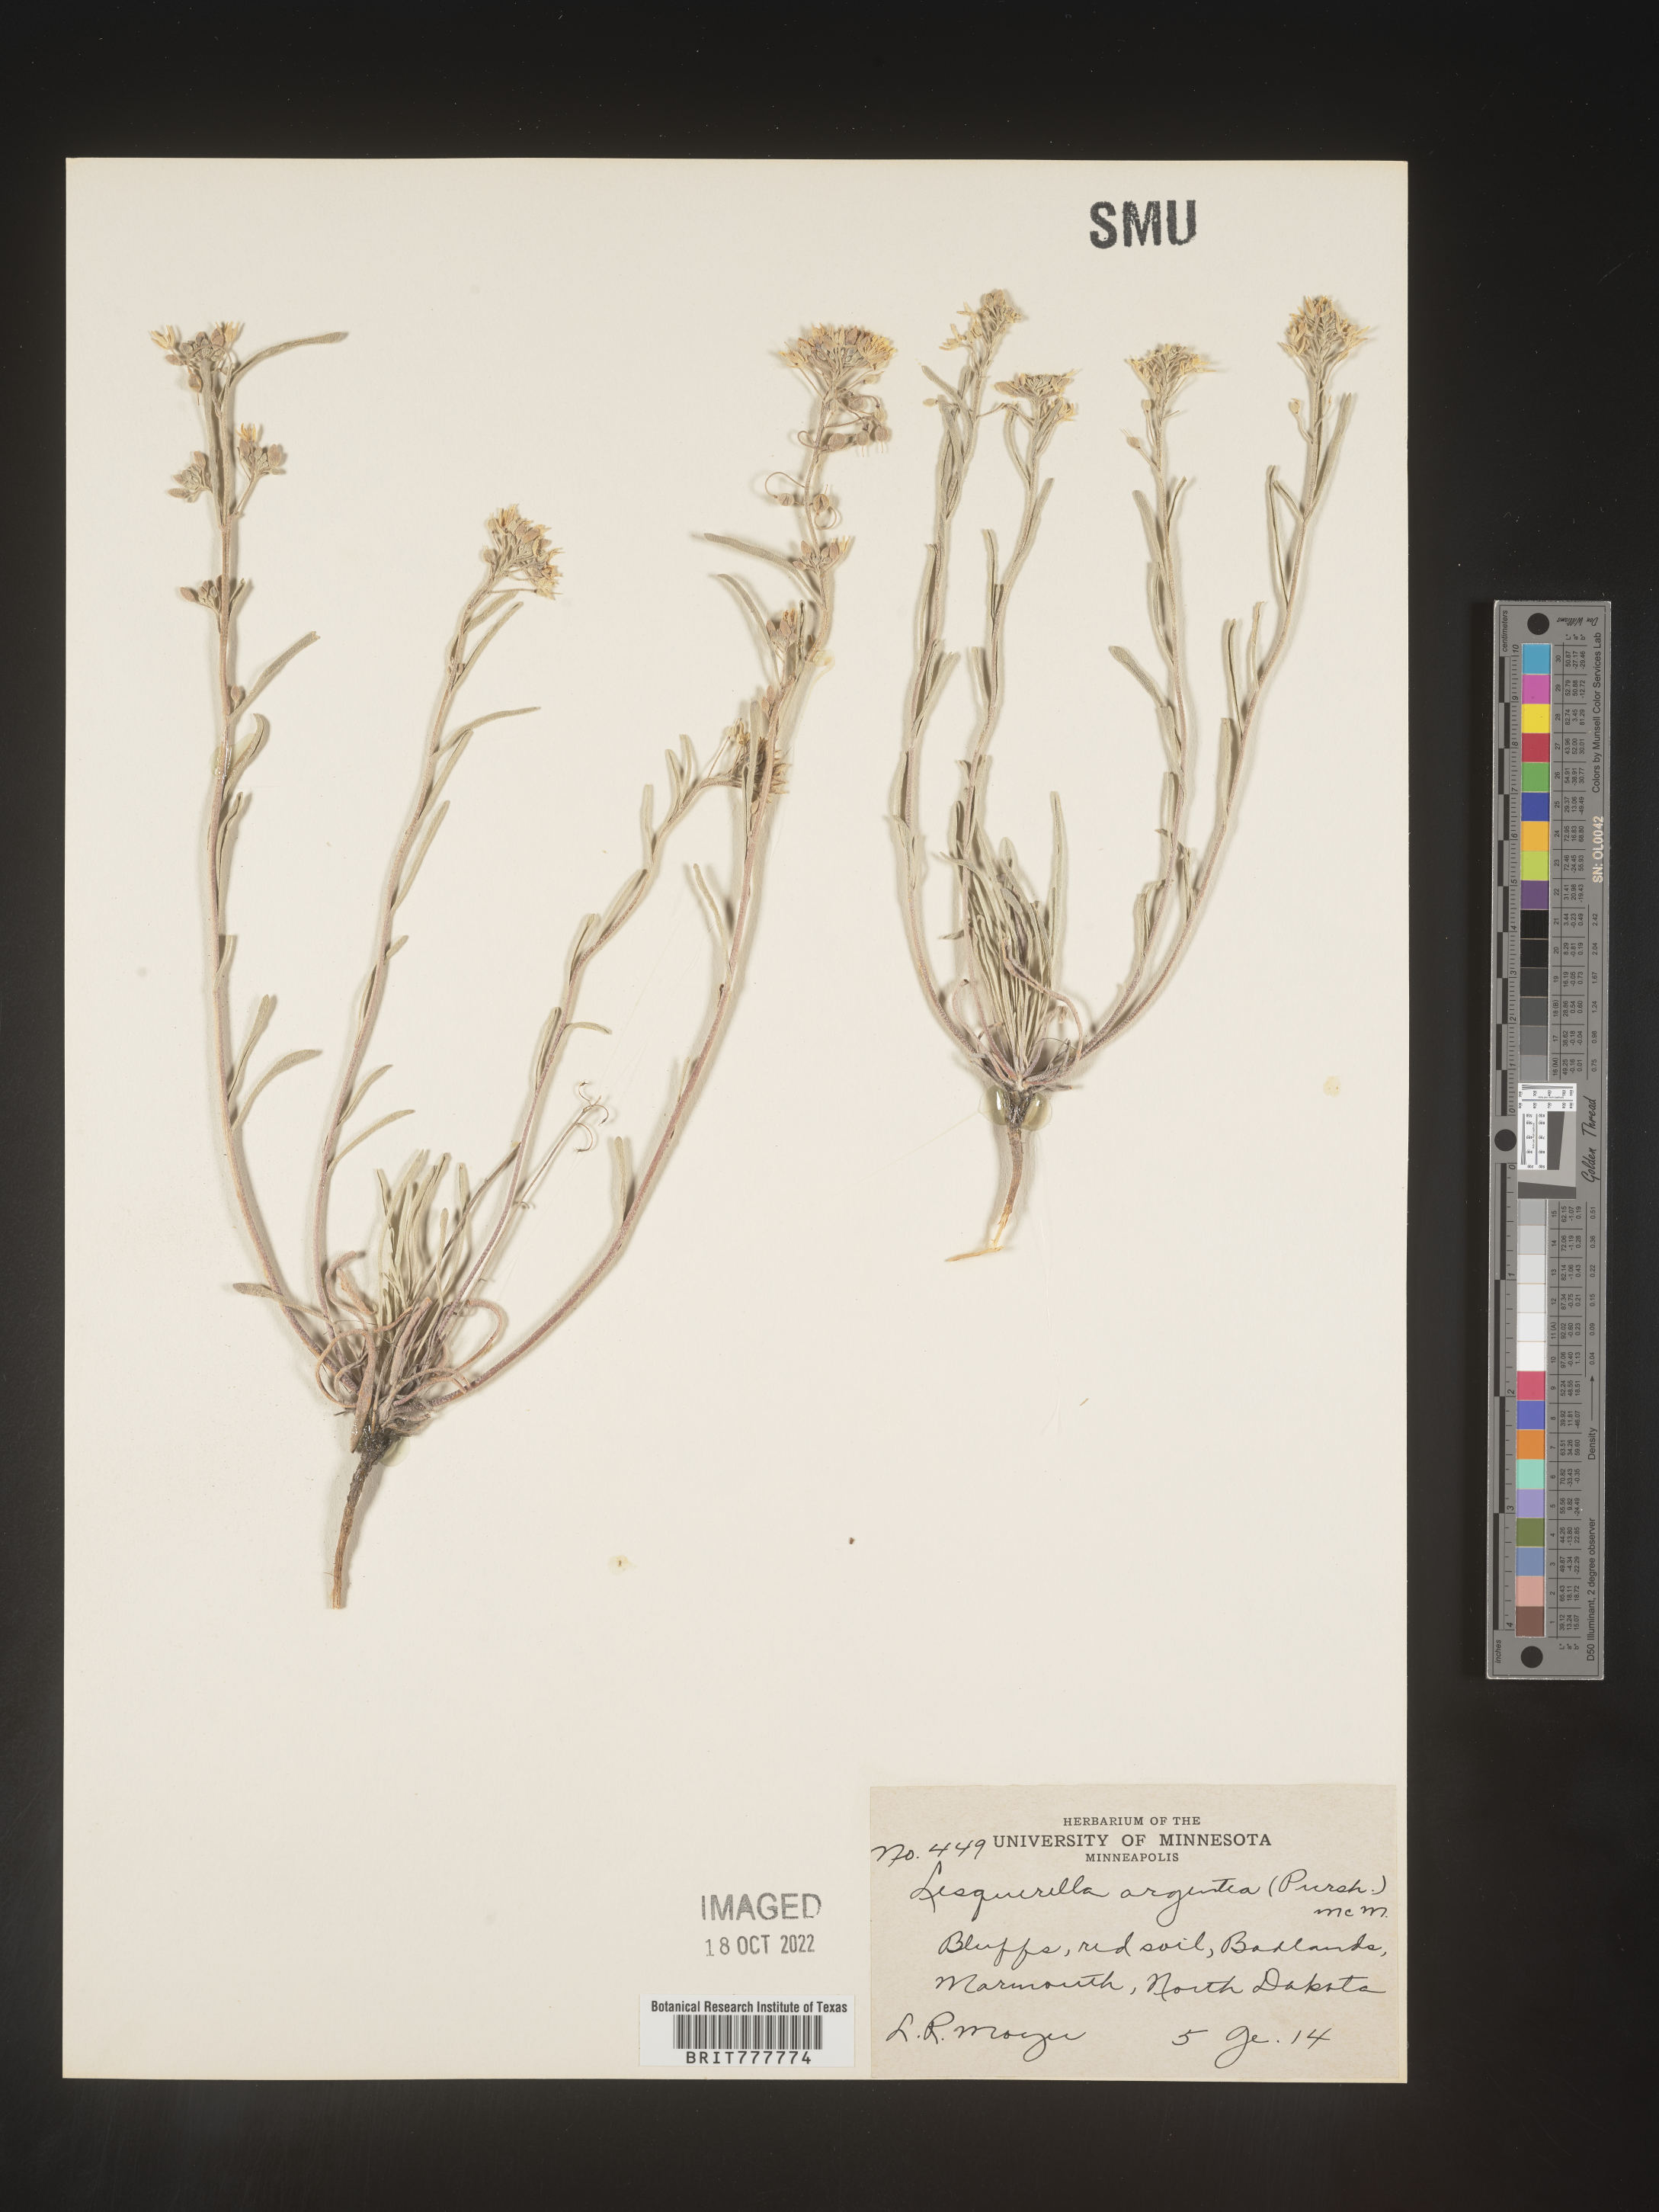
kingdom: Chromista
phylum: Cercozoa
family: Psammonobiotidae
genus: Lesquerella
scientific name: Lesquerella
